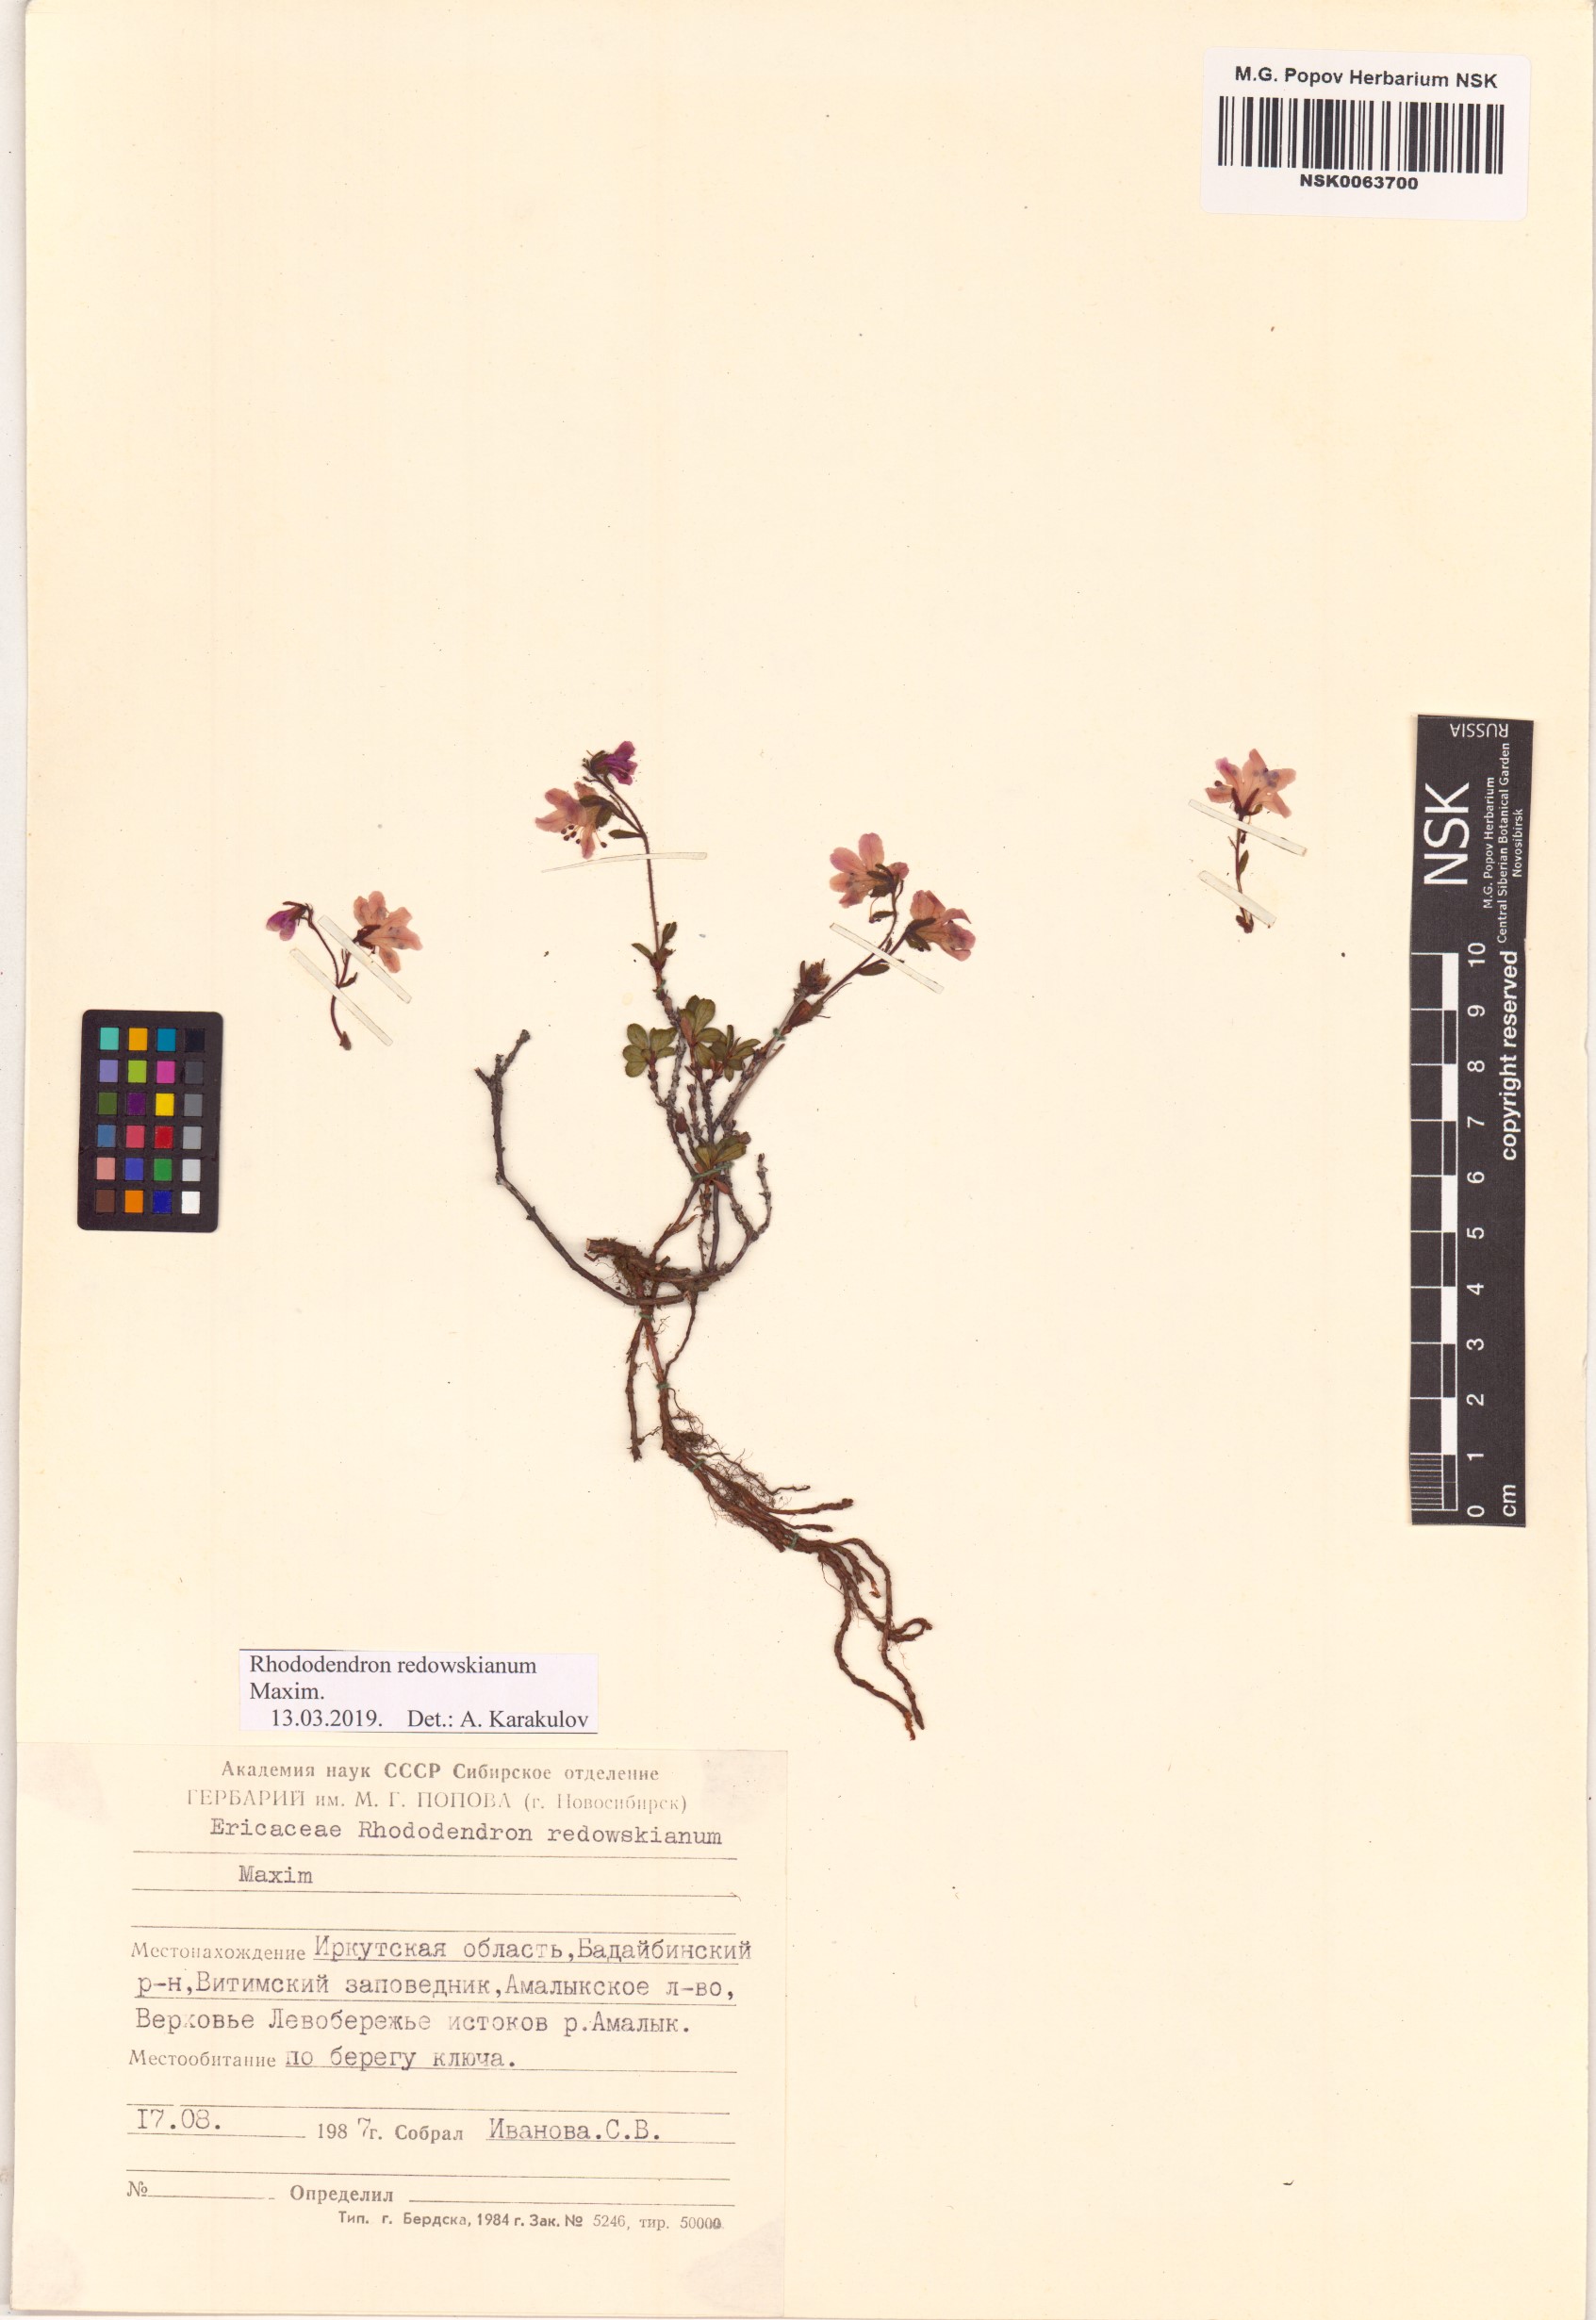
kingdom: Plantae
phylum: Tracheophyta
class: Magnoliopsida
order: Ericales
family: Ericaceae
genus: Rhododendron
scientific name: Rhododendron redowskianum
